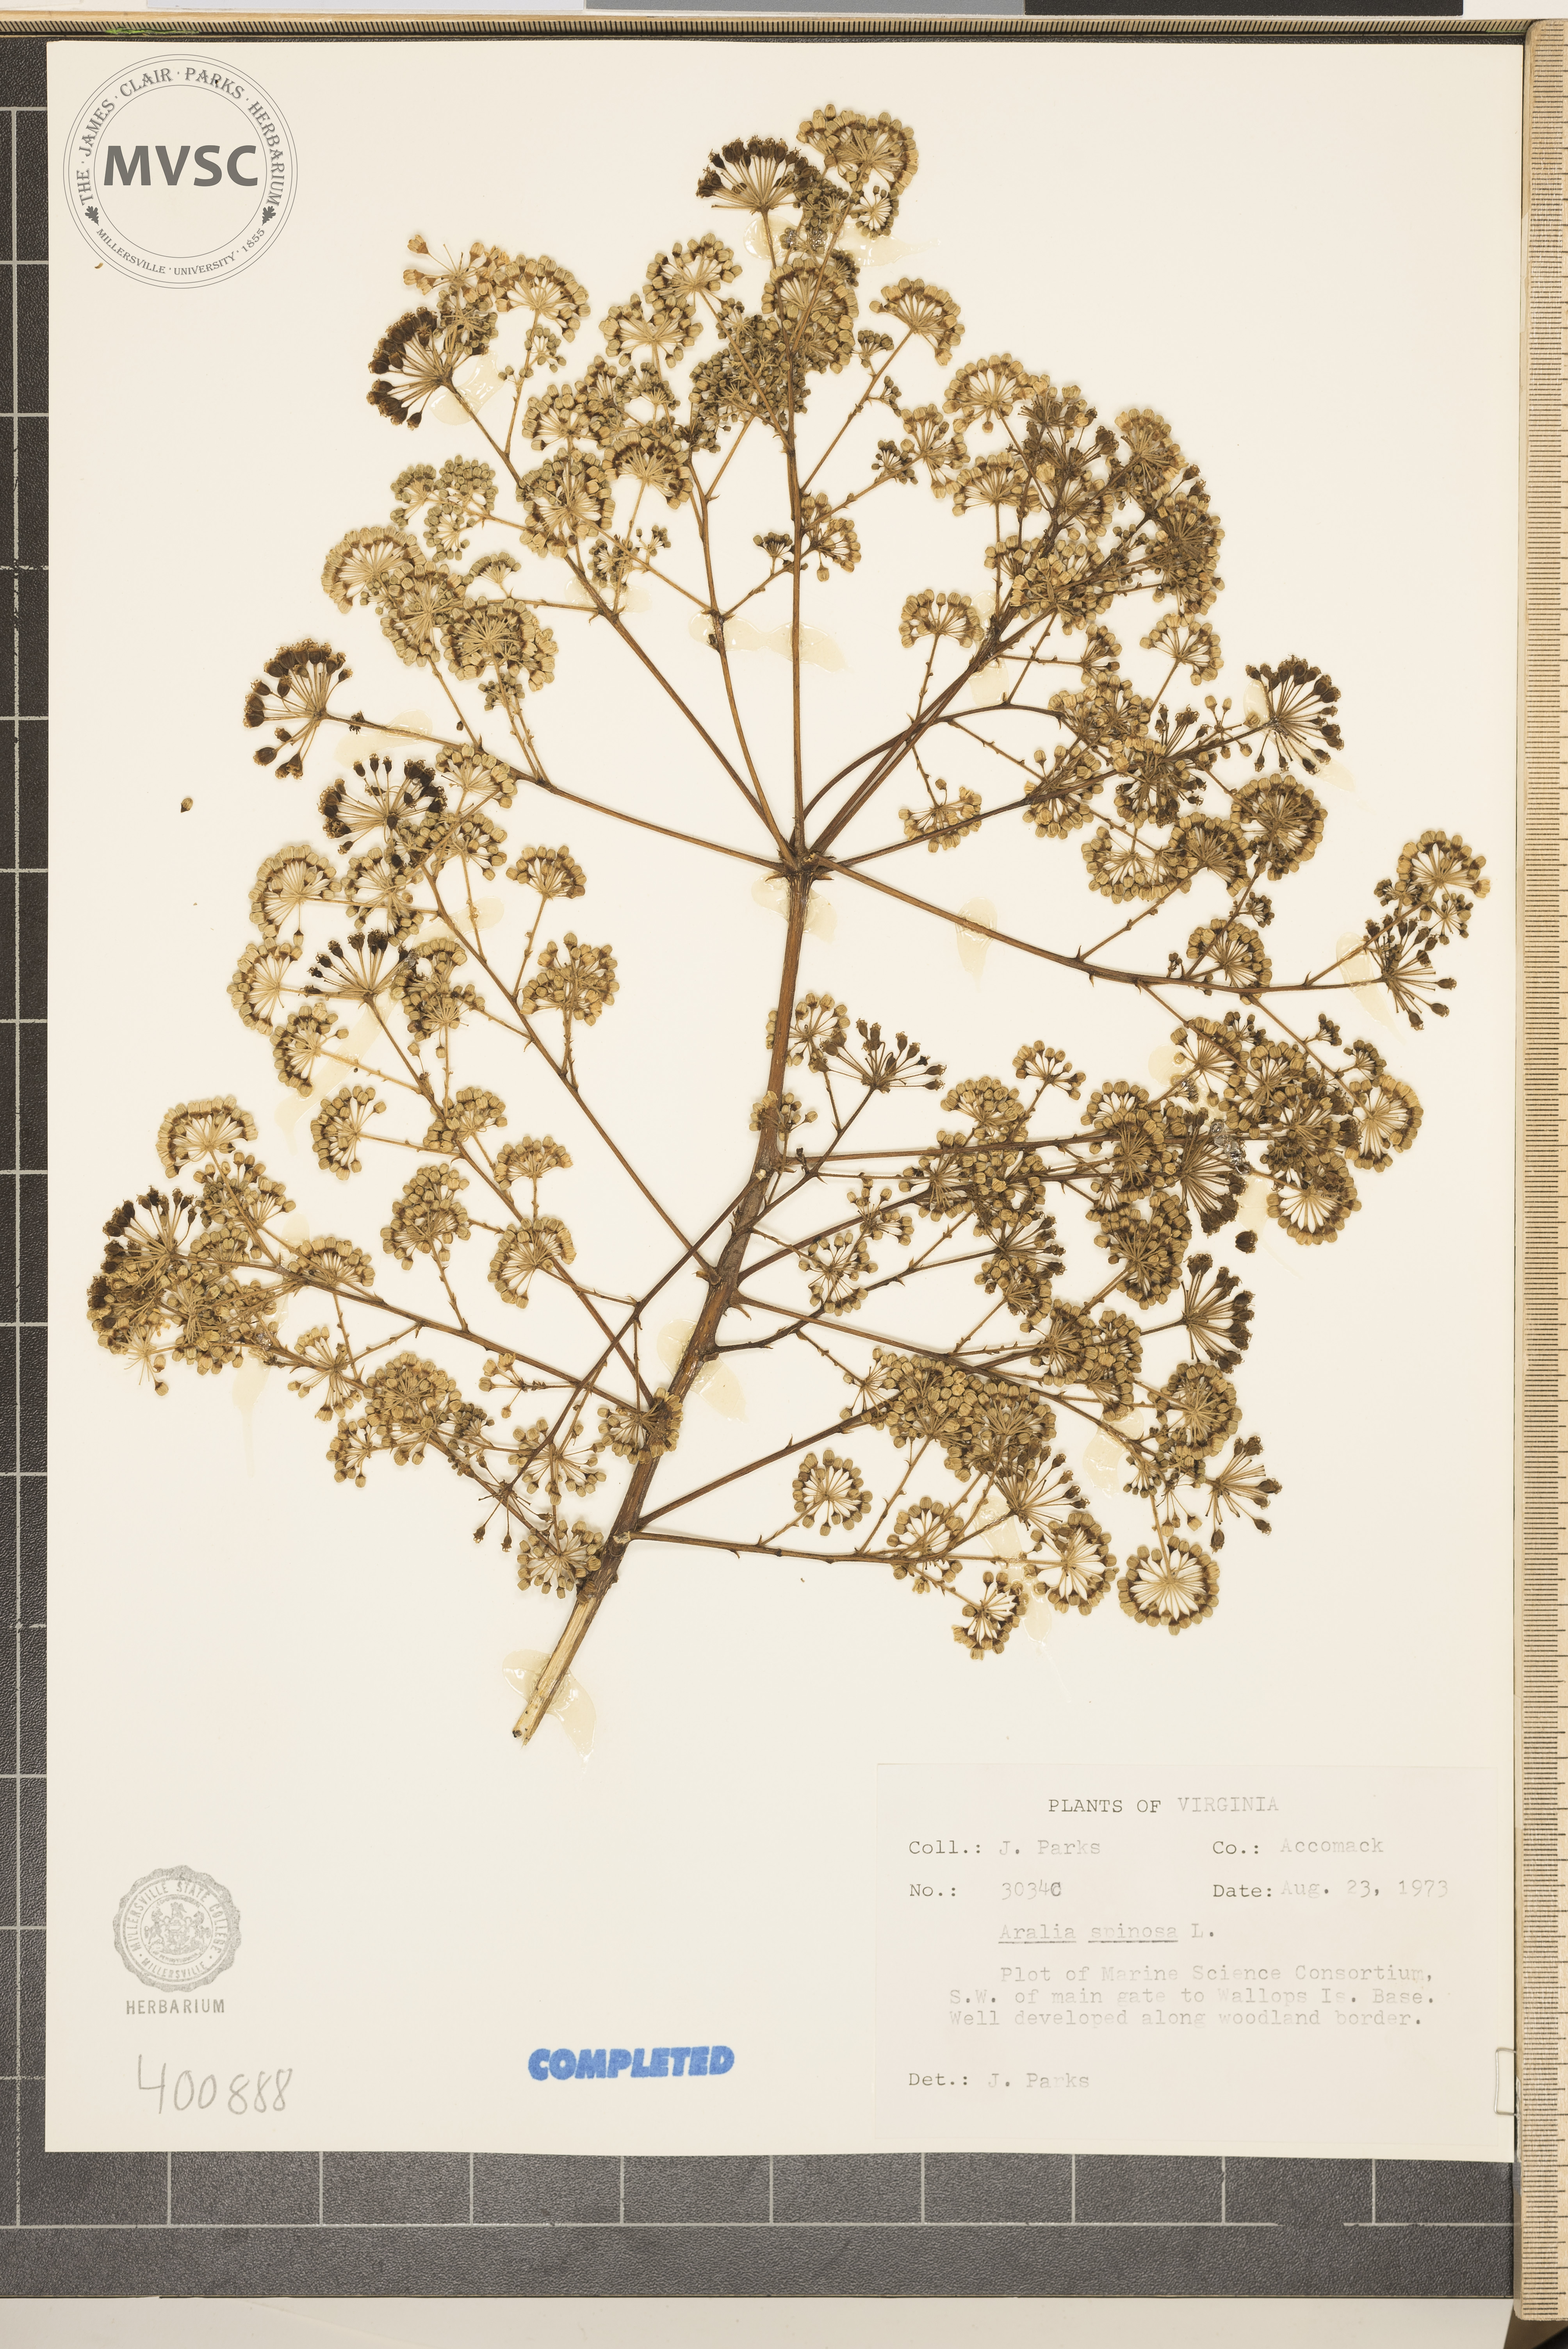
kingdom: Plantae
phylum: Tracheophyta
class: Magnoliopsida
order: Apiales
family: Araliaceae
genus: Aralia
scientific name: Aralia spinosa
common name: Devil's club
